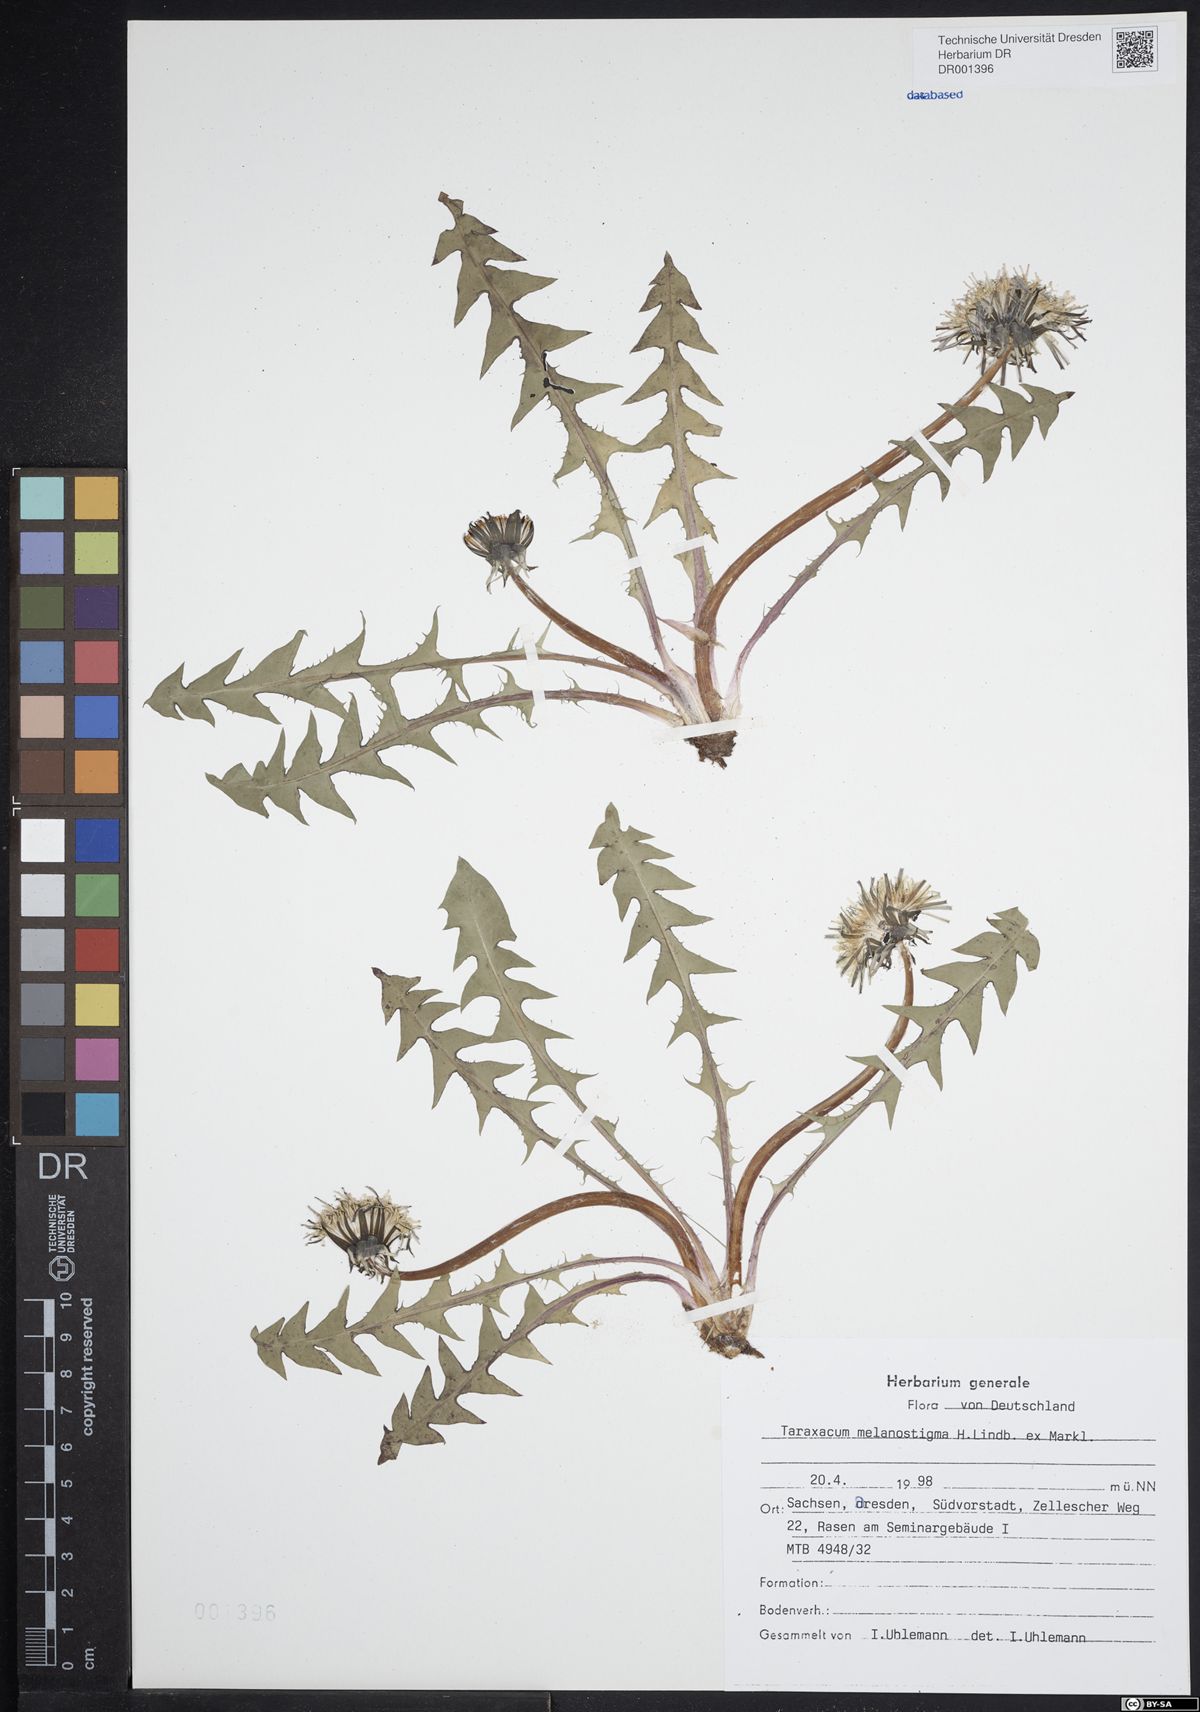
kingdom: Plantae
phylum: Tracheophyta
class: Magnoliopsida
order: Asterales
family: Asteraceae
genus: Taraxacum
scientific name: Taraxacum melanostigma
